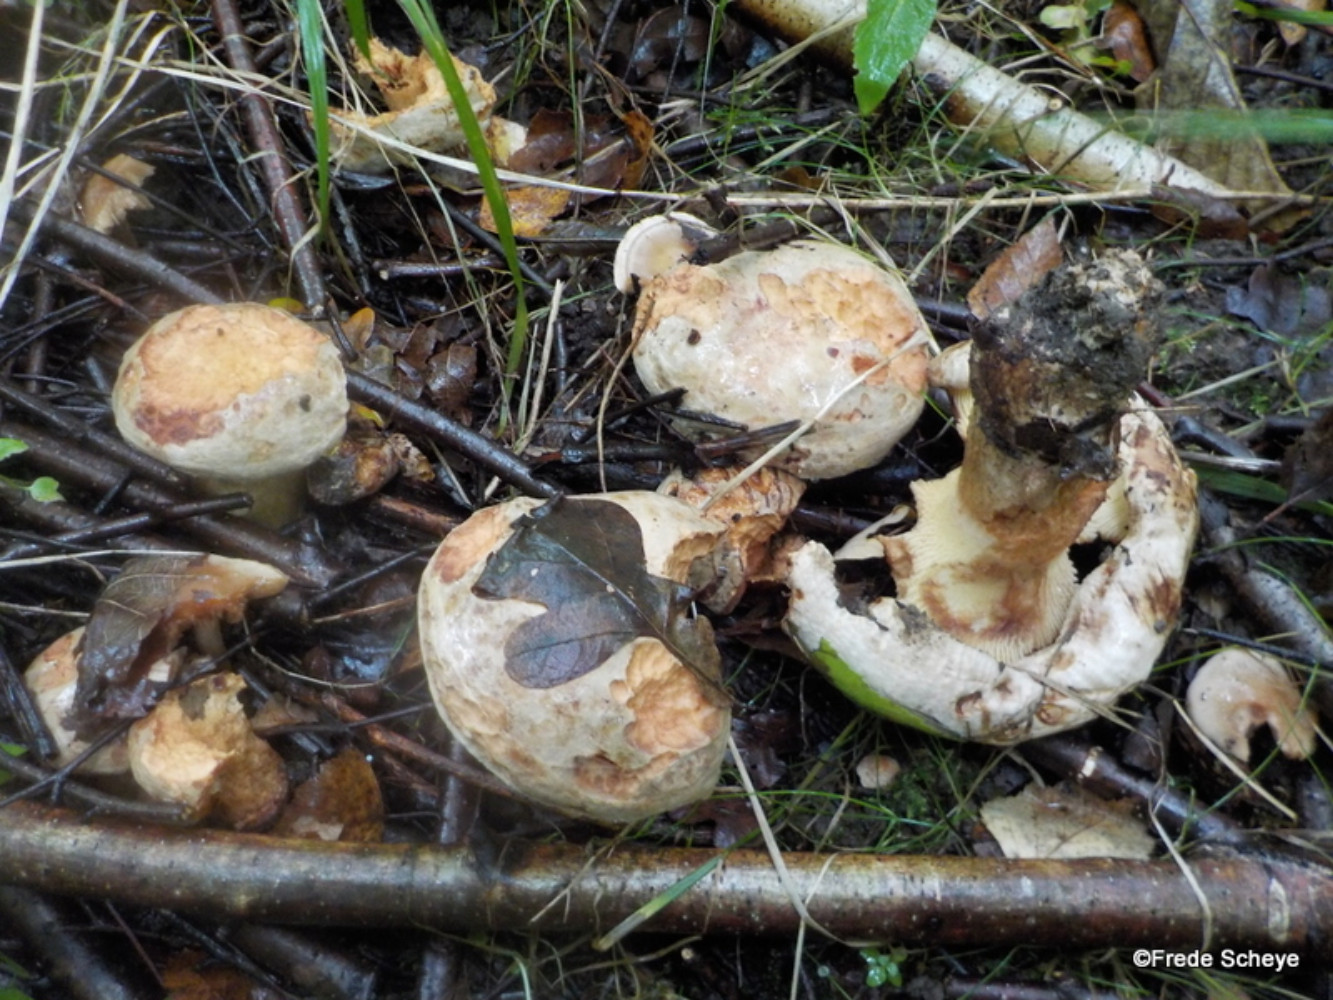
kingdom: Fungi
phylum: Basidiomycota
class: Agaricomycetes
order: Boletales
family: Paxillaceae
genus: Paxillus
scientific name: Paxillus involutus
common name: almindelig netbladhat
